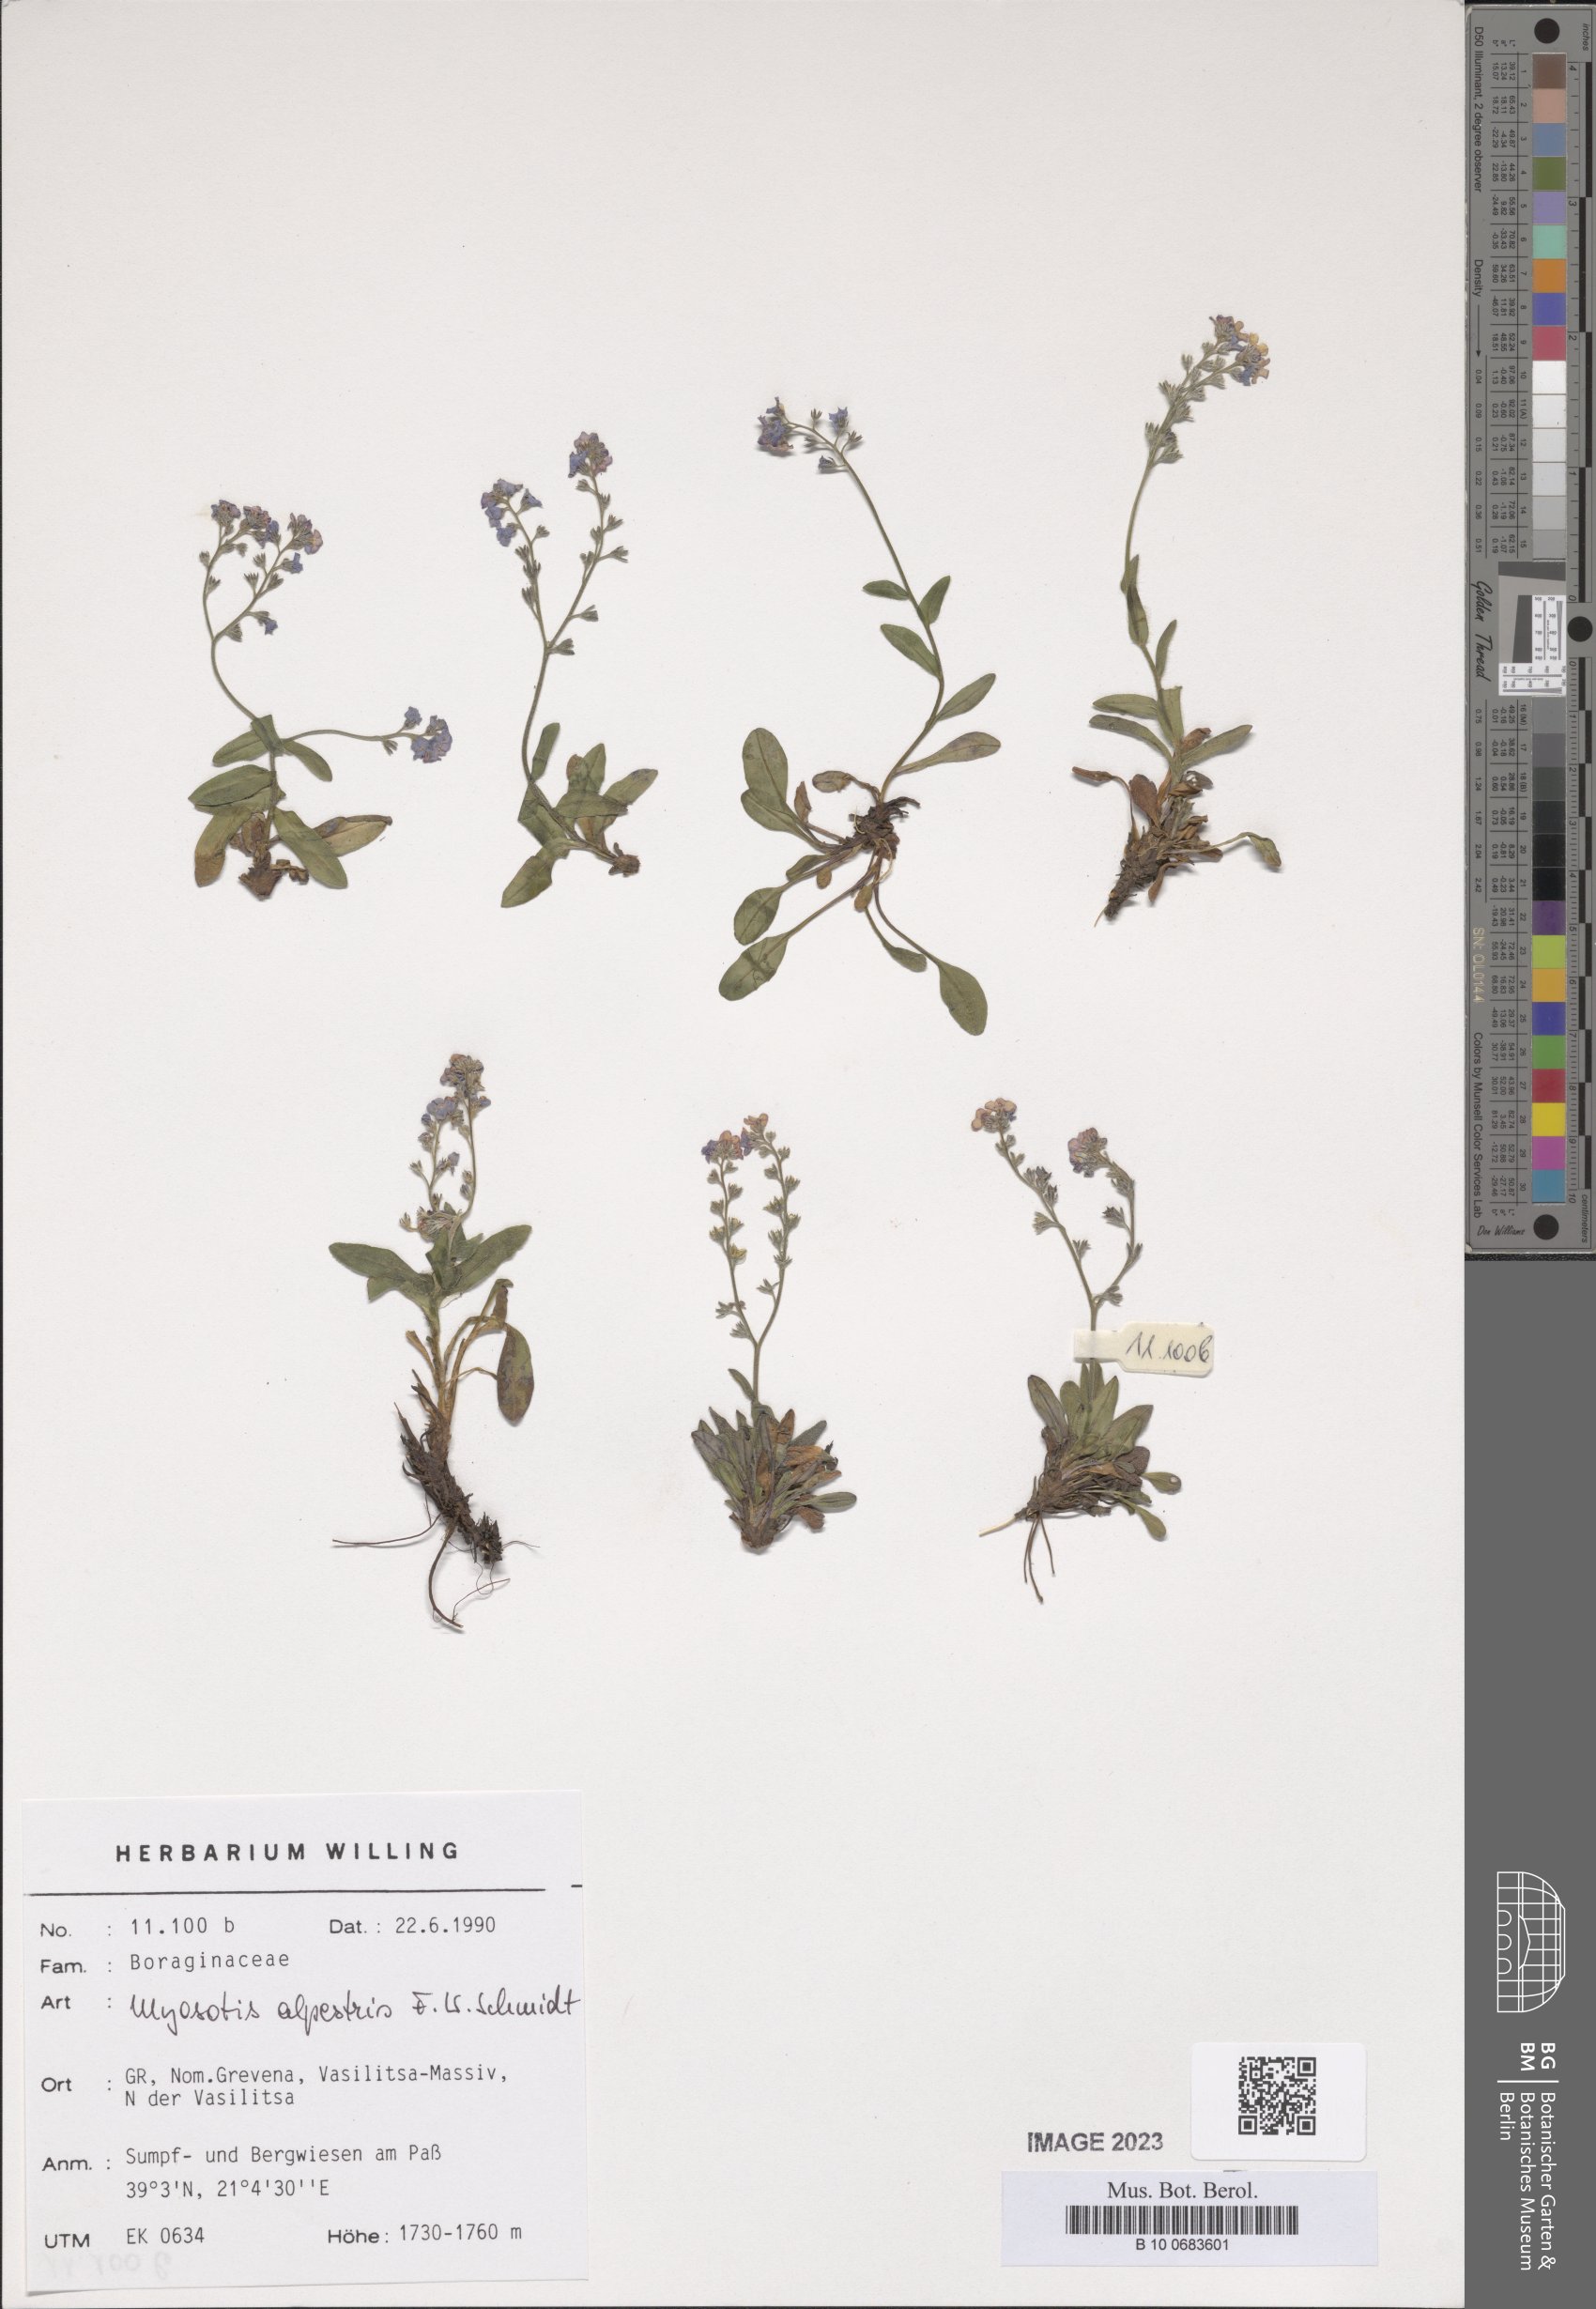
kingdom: Plantae
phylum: Tracheophyta
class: Magnoliopsida
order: Boraginales
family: Boraginaceae
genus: Myosotis
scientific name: Myosotis alpestris
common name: Alpine forget-me-not
